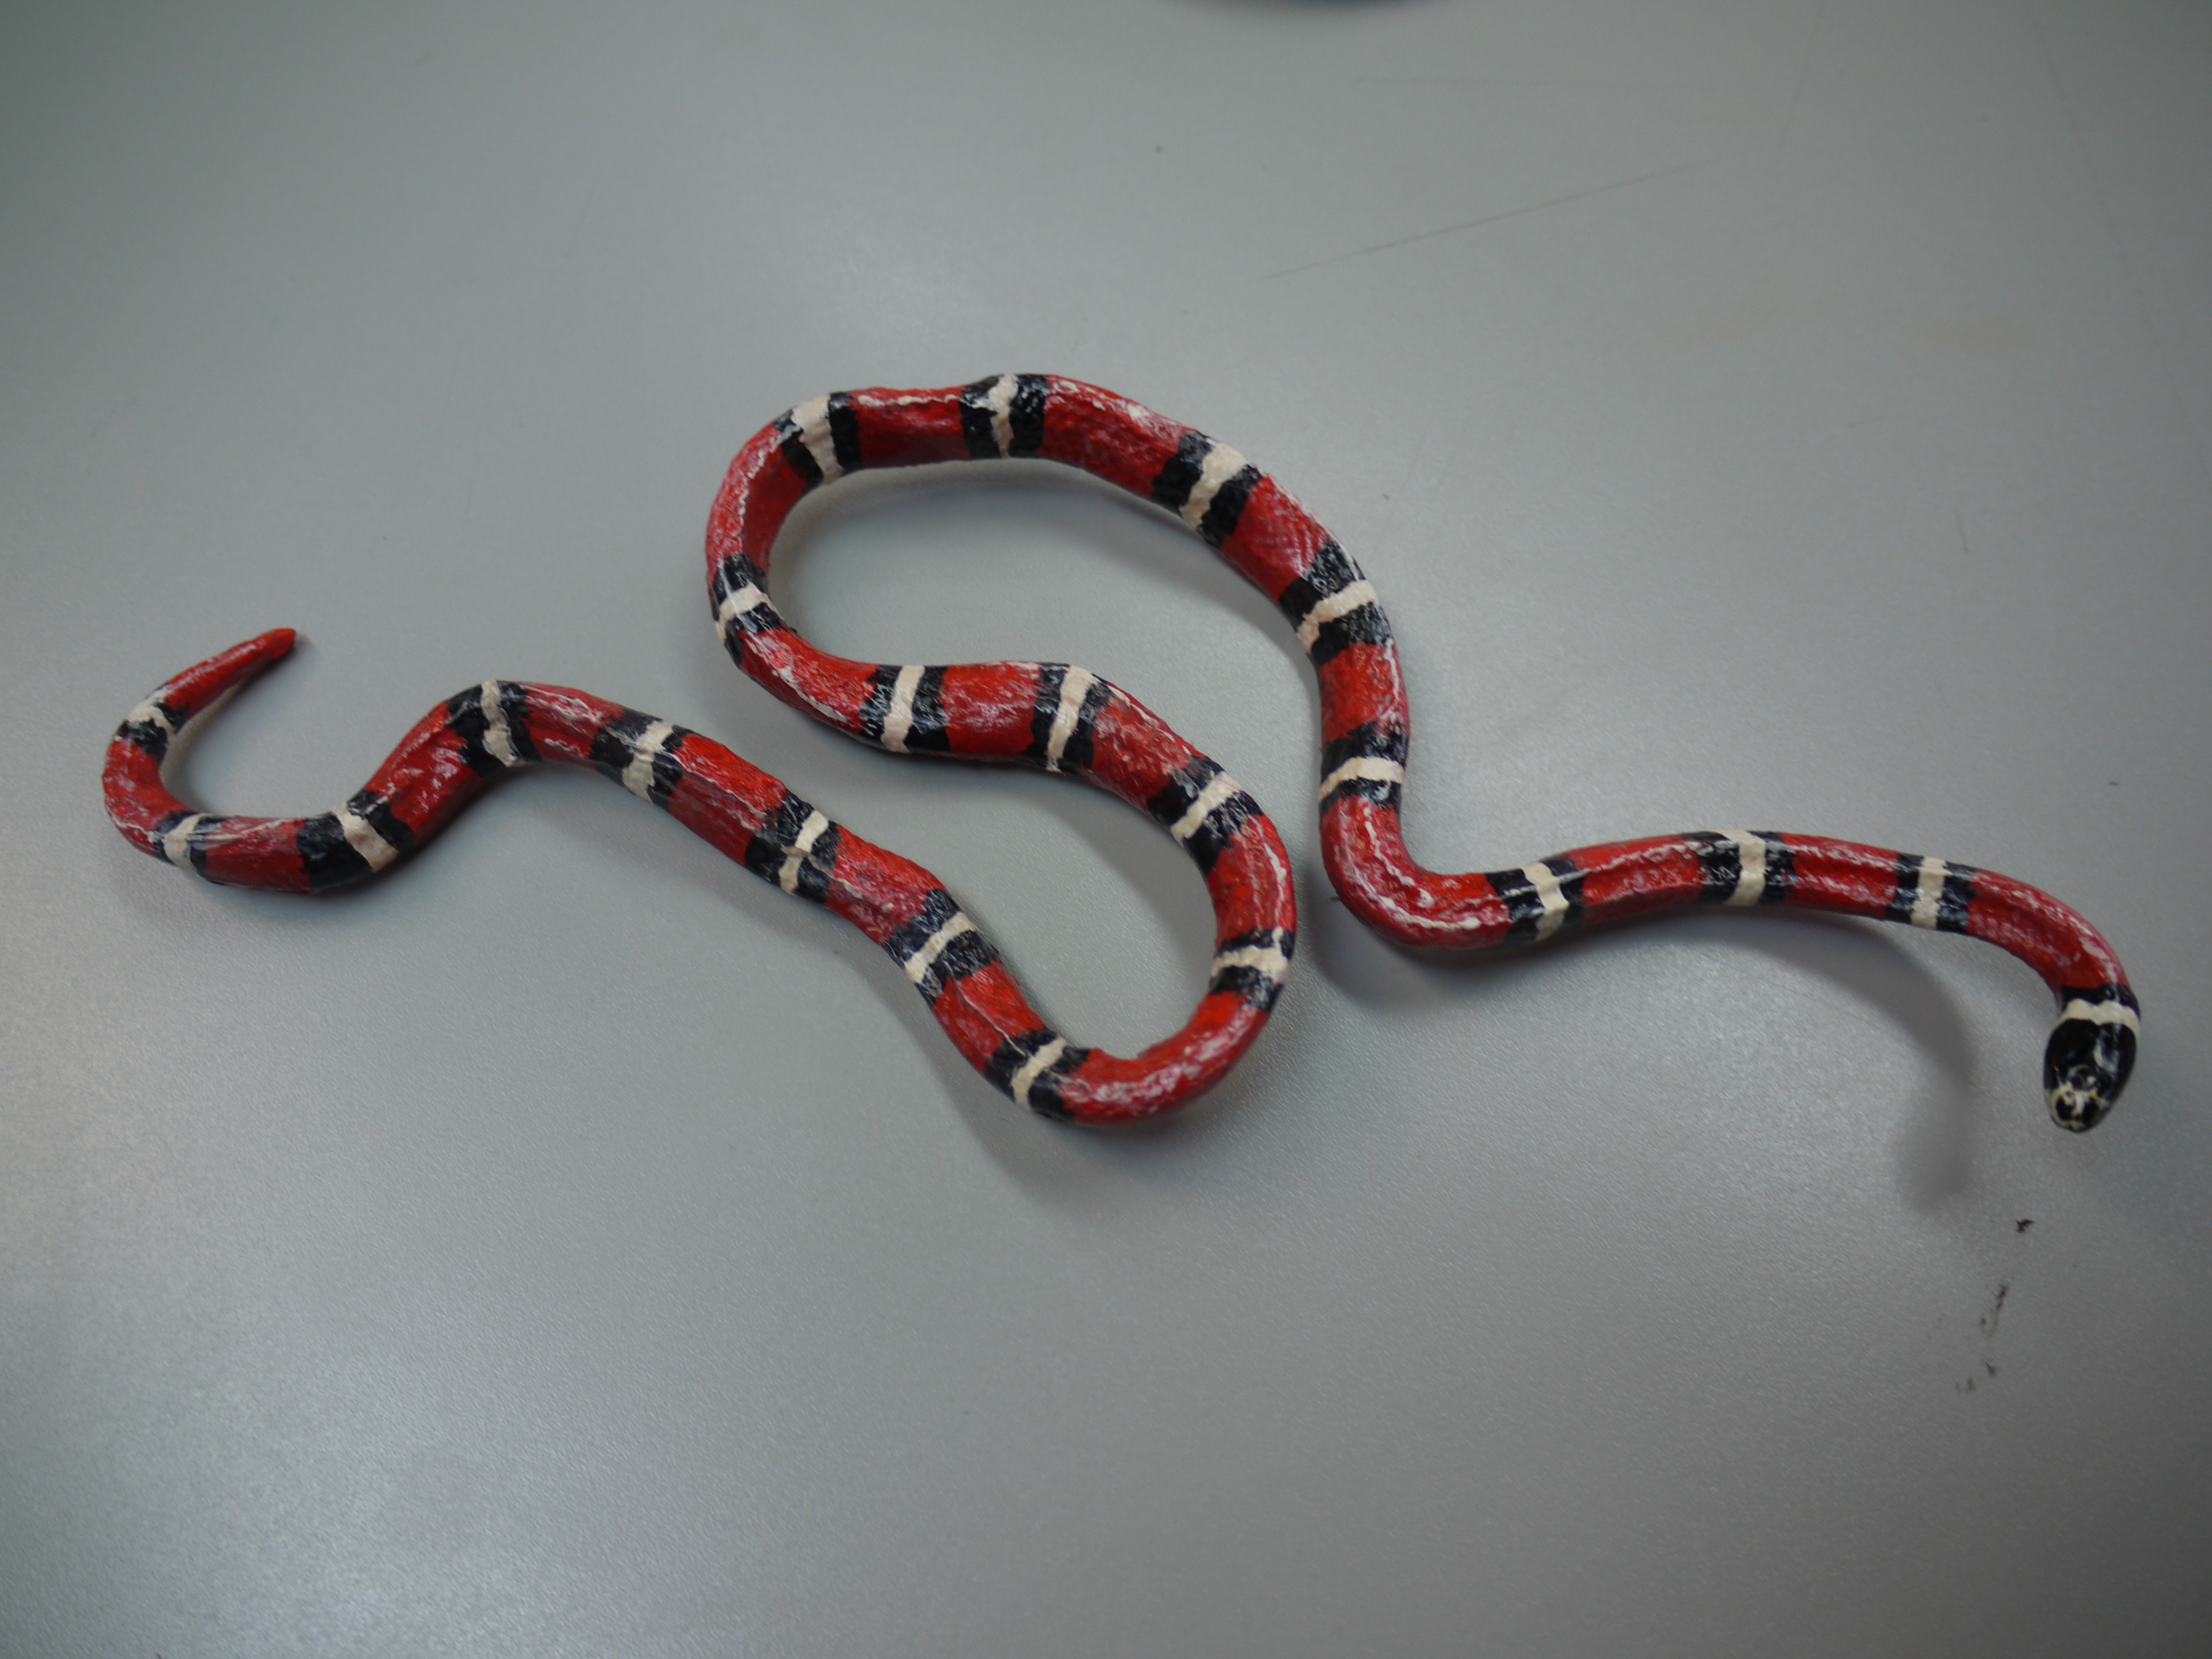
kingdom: Animalia
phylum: Chordata
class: Squamata
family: Colubridae
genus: Lampropeltis
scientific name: Lampropeltis elapsoides
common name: Scarlet kingsnake
